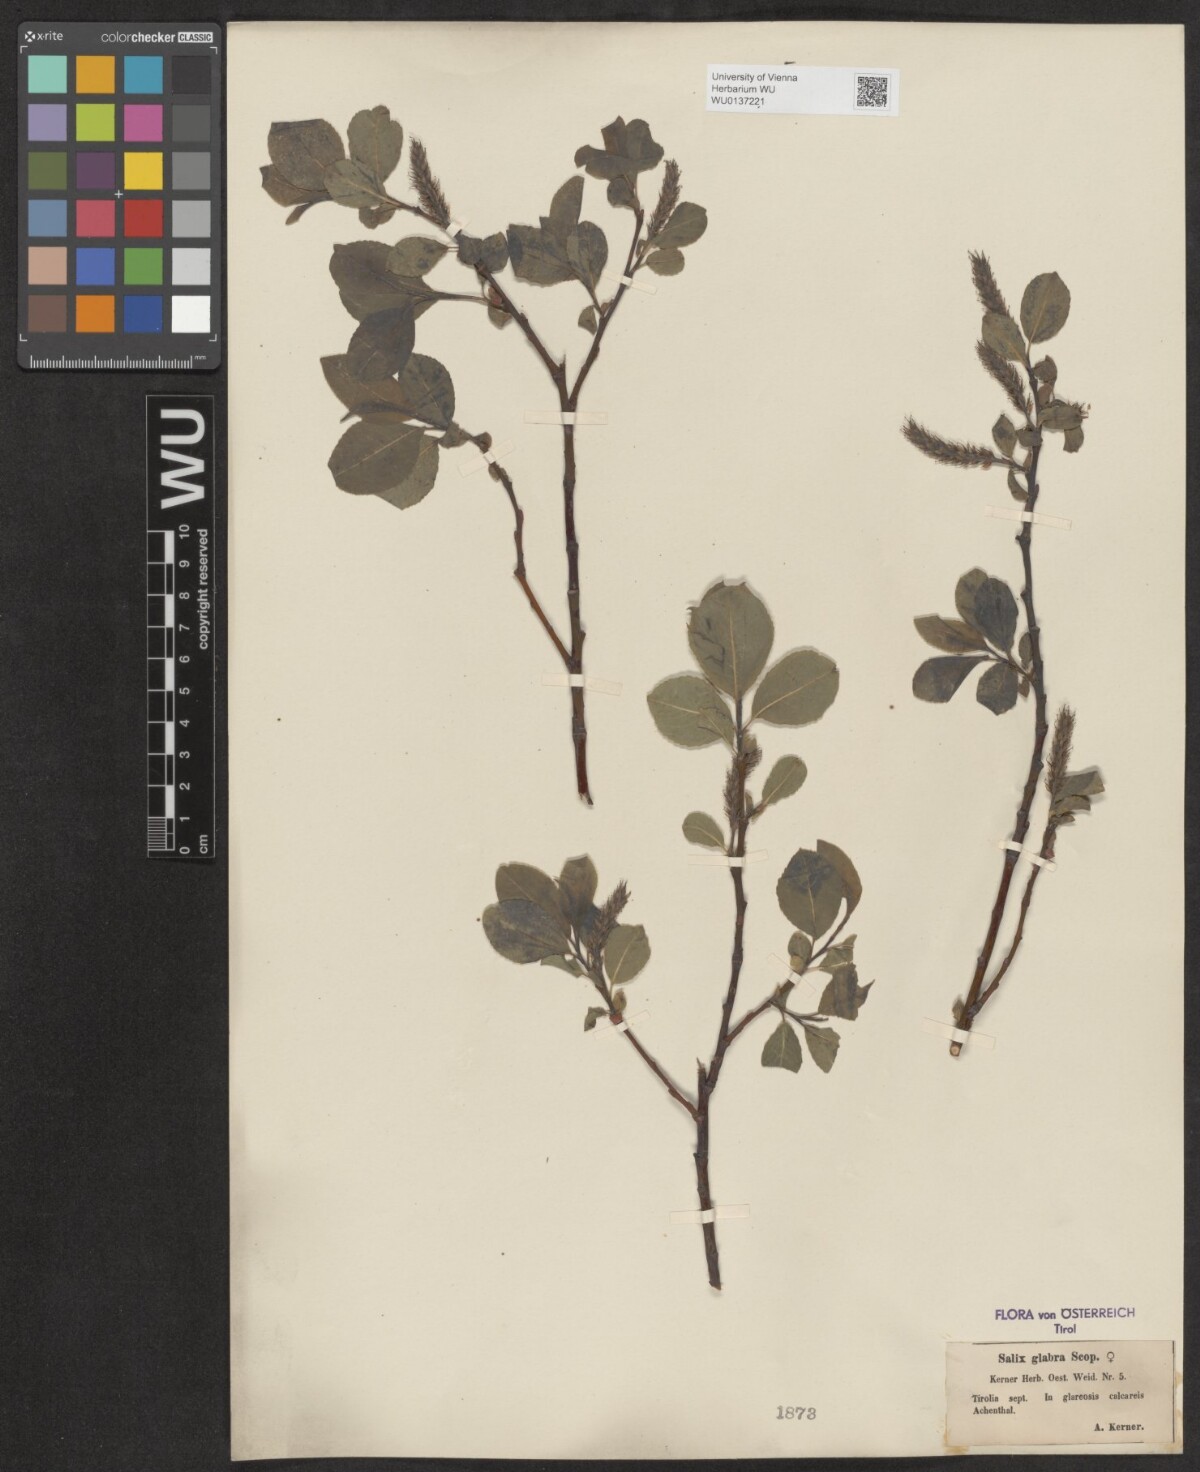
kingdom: Plantae
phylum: Tracheophyta
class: Magnoliopsida
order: Malpighiales
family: Salicaceae
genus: Salix
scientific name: Salix glabra
